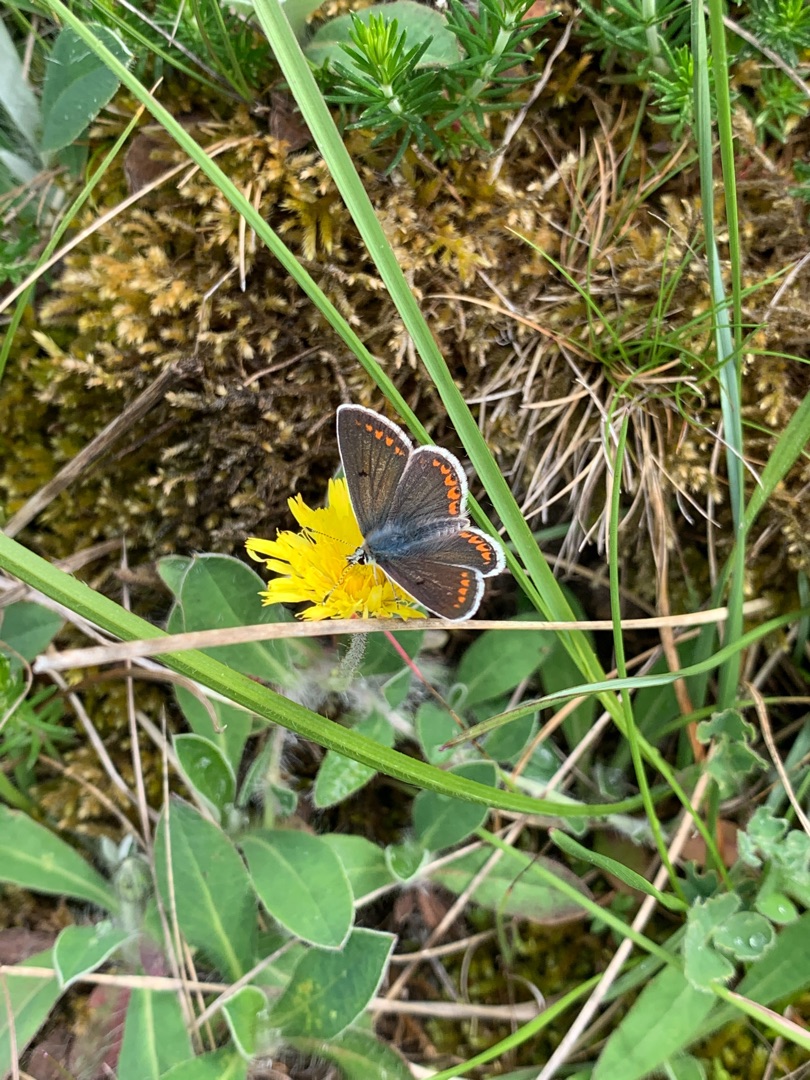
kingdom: Animalia
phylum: Arthropoda
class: Insecta
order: Lepidoptera
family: Lycaenidae
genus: Aricia
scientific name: Aricia agestis
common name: Rødplettet blåfugl
